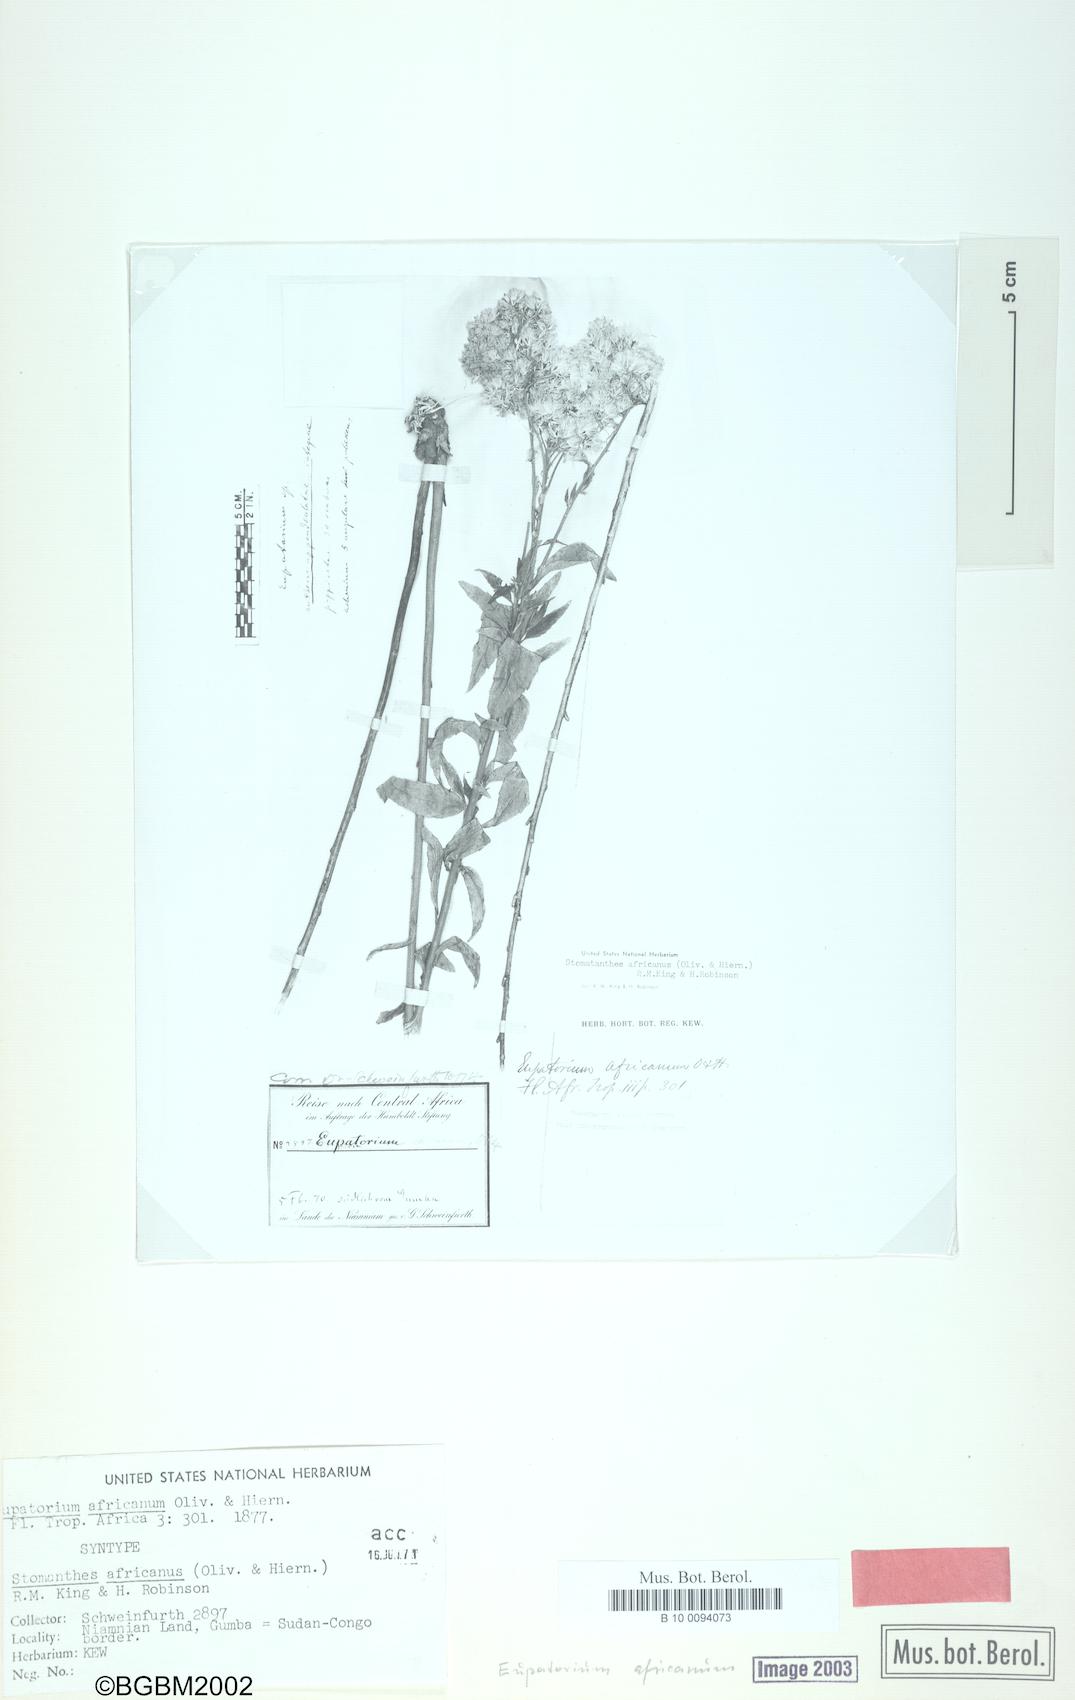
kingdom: Plantae
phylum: Tracheophyta
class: Magnoliopsida
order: Asterales
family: Asteraceae
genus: Stomatanthes
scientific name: Stomatanthes africanus
